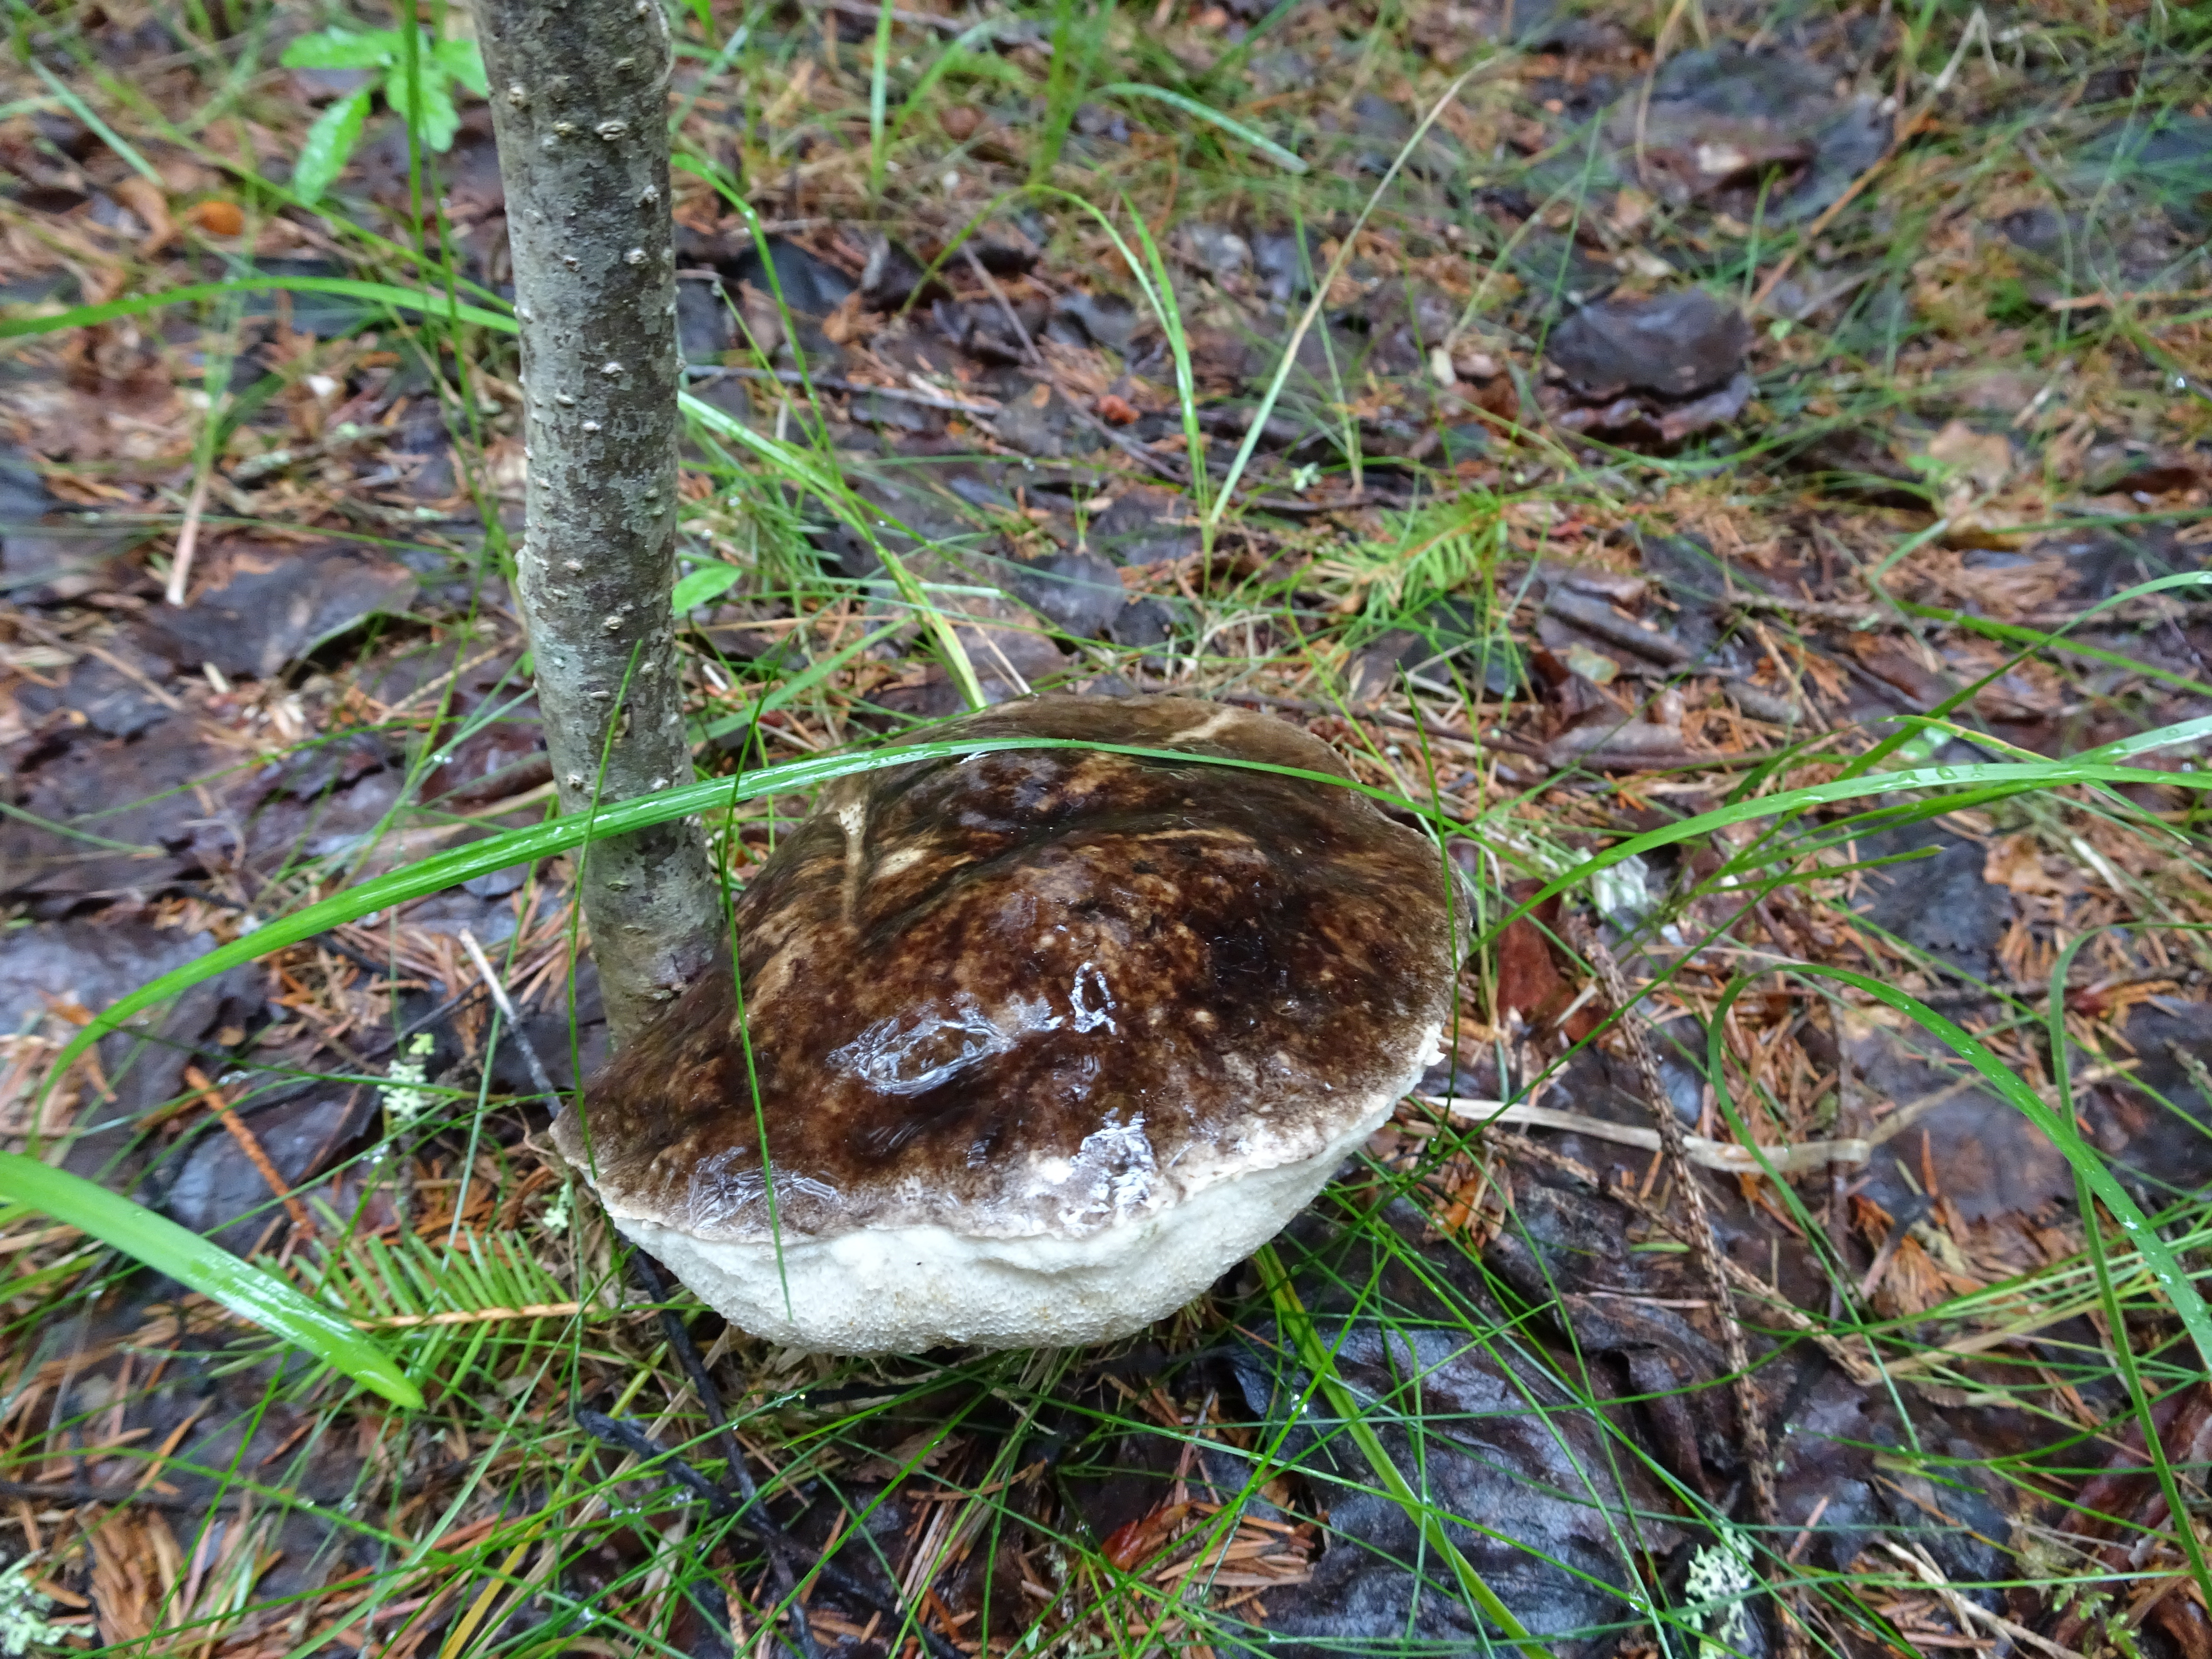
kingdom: Fungi
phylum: Basidiomycota
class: Agaricomycetes
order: Boletales
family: Boletaceae
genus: Leccinum
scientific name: Leccinum variicolor
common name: Mottled bolete
